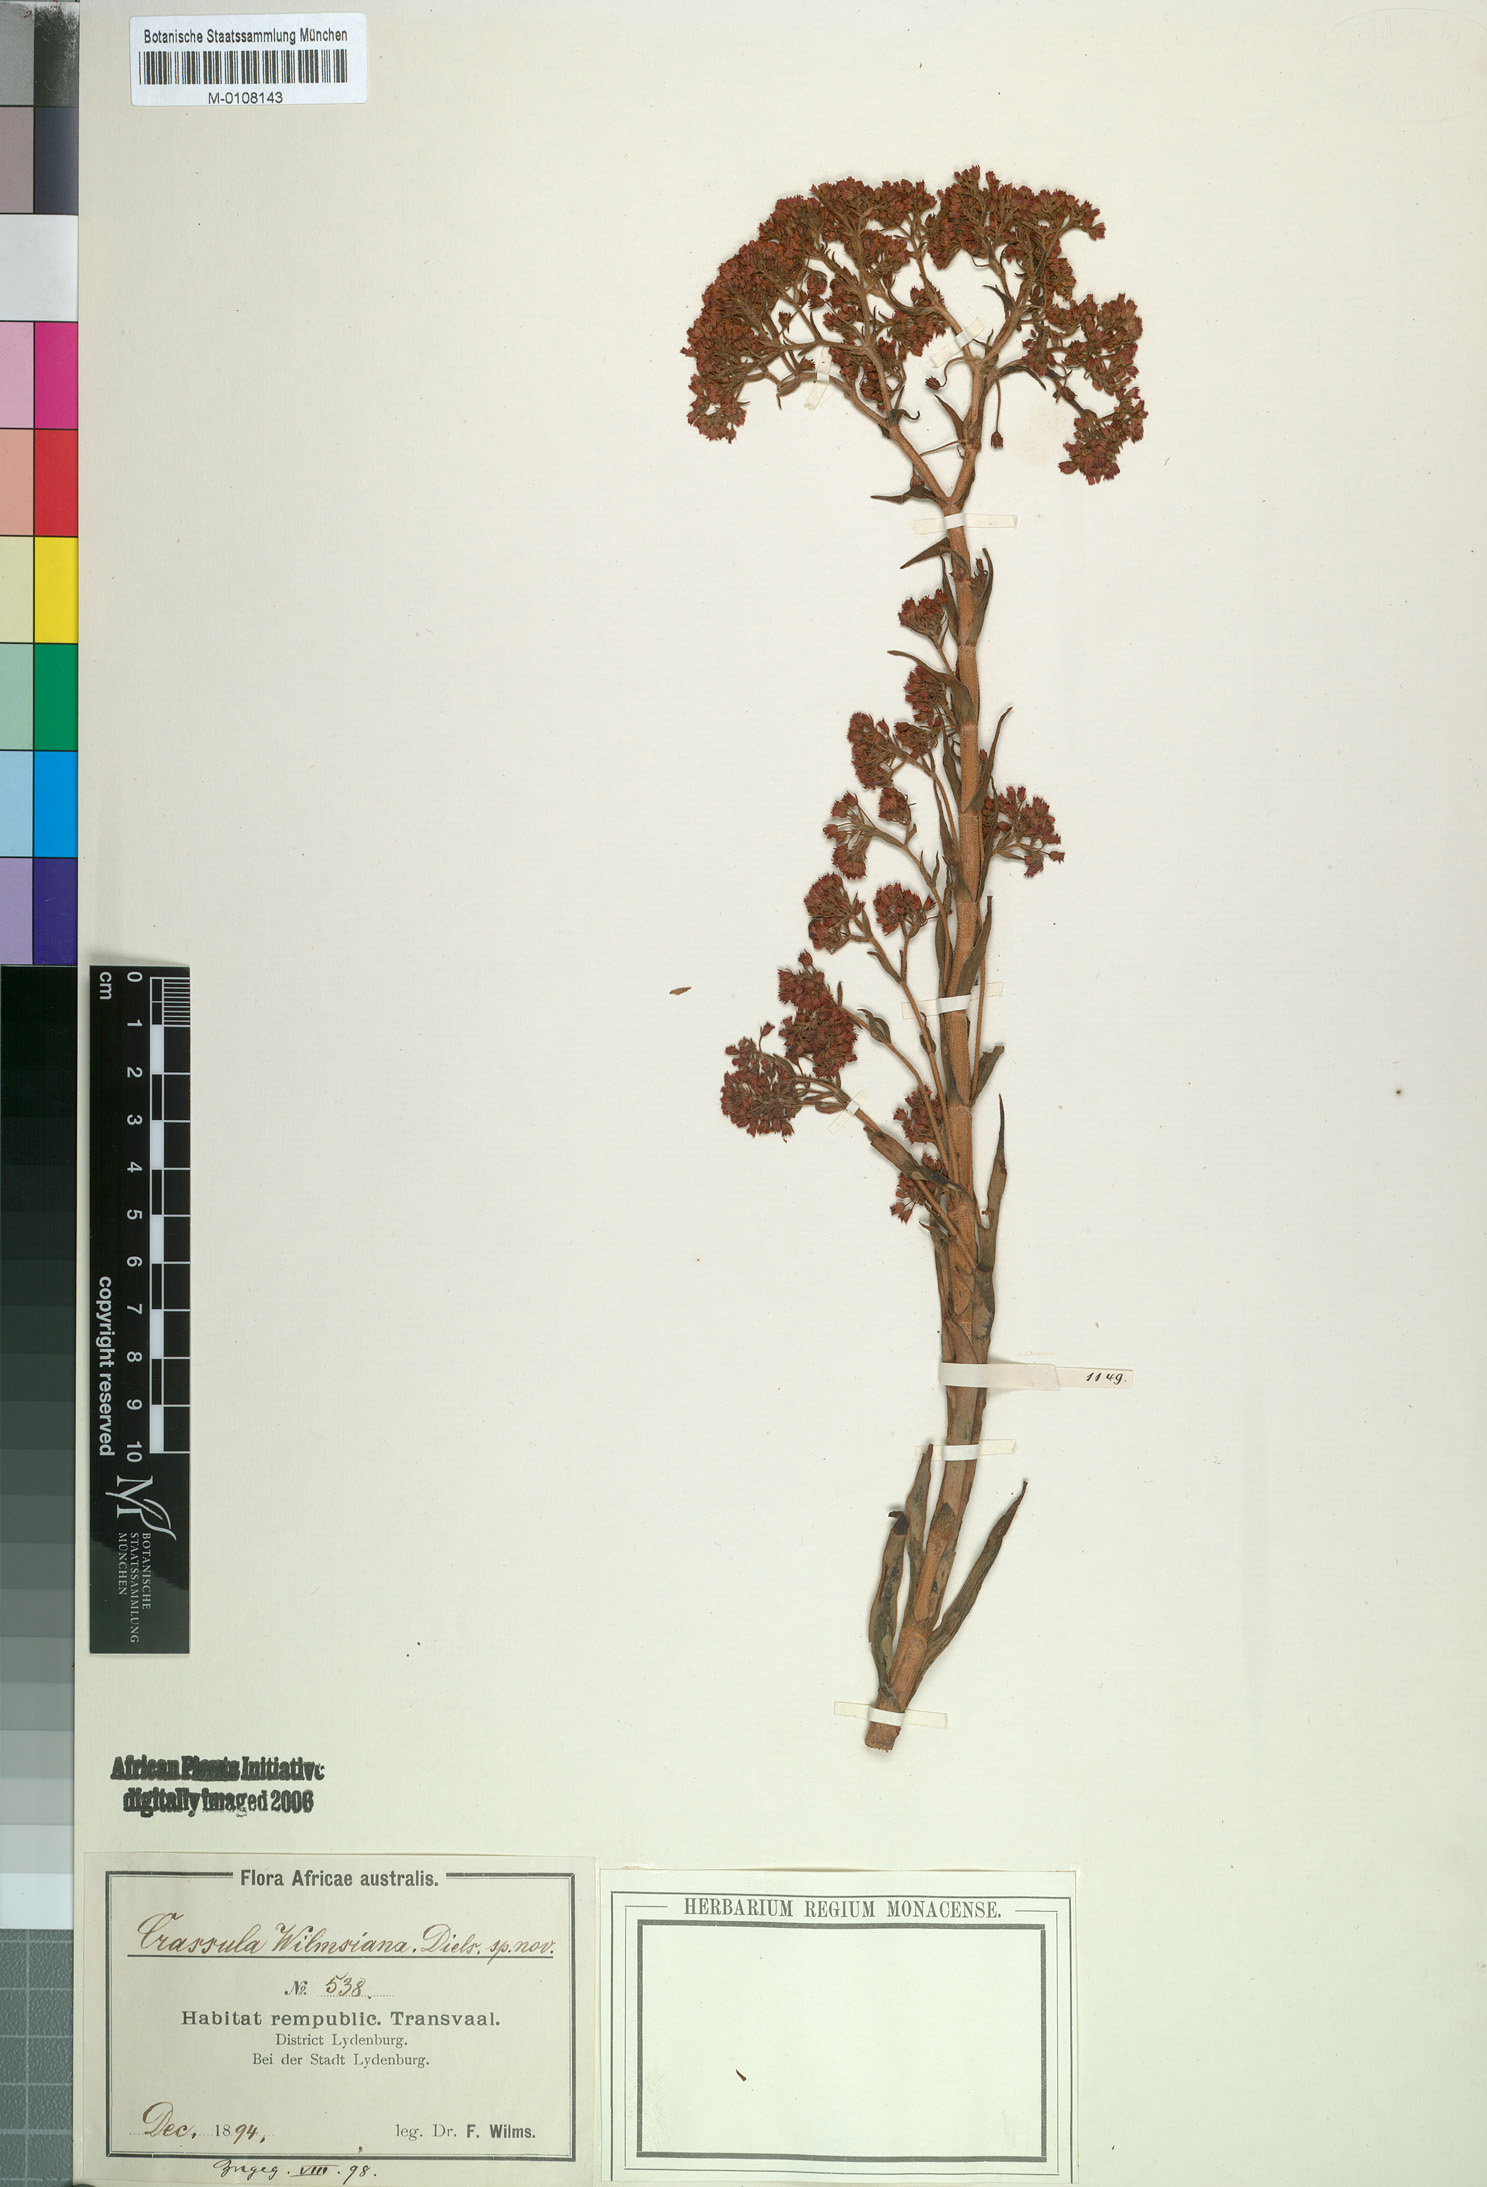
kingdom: Plantae
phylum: Tracheophyta
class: Magnoliopsida
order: Saxifragales
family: Crassulaceae
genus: Crassula
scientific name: Crassula alba
